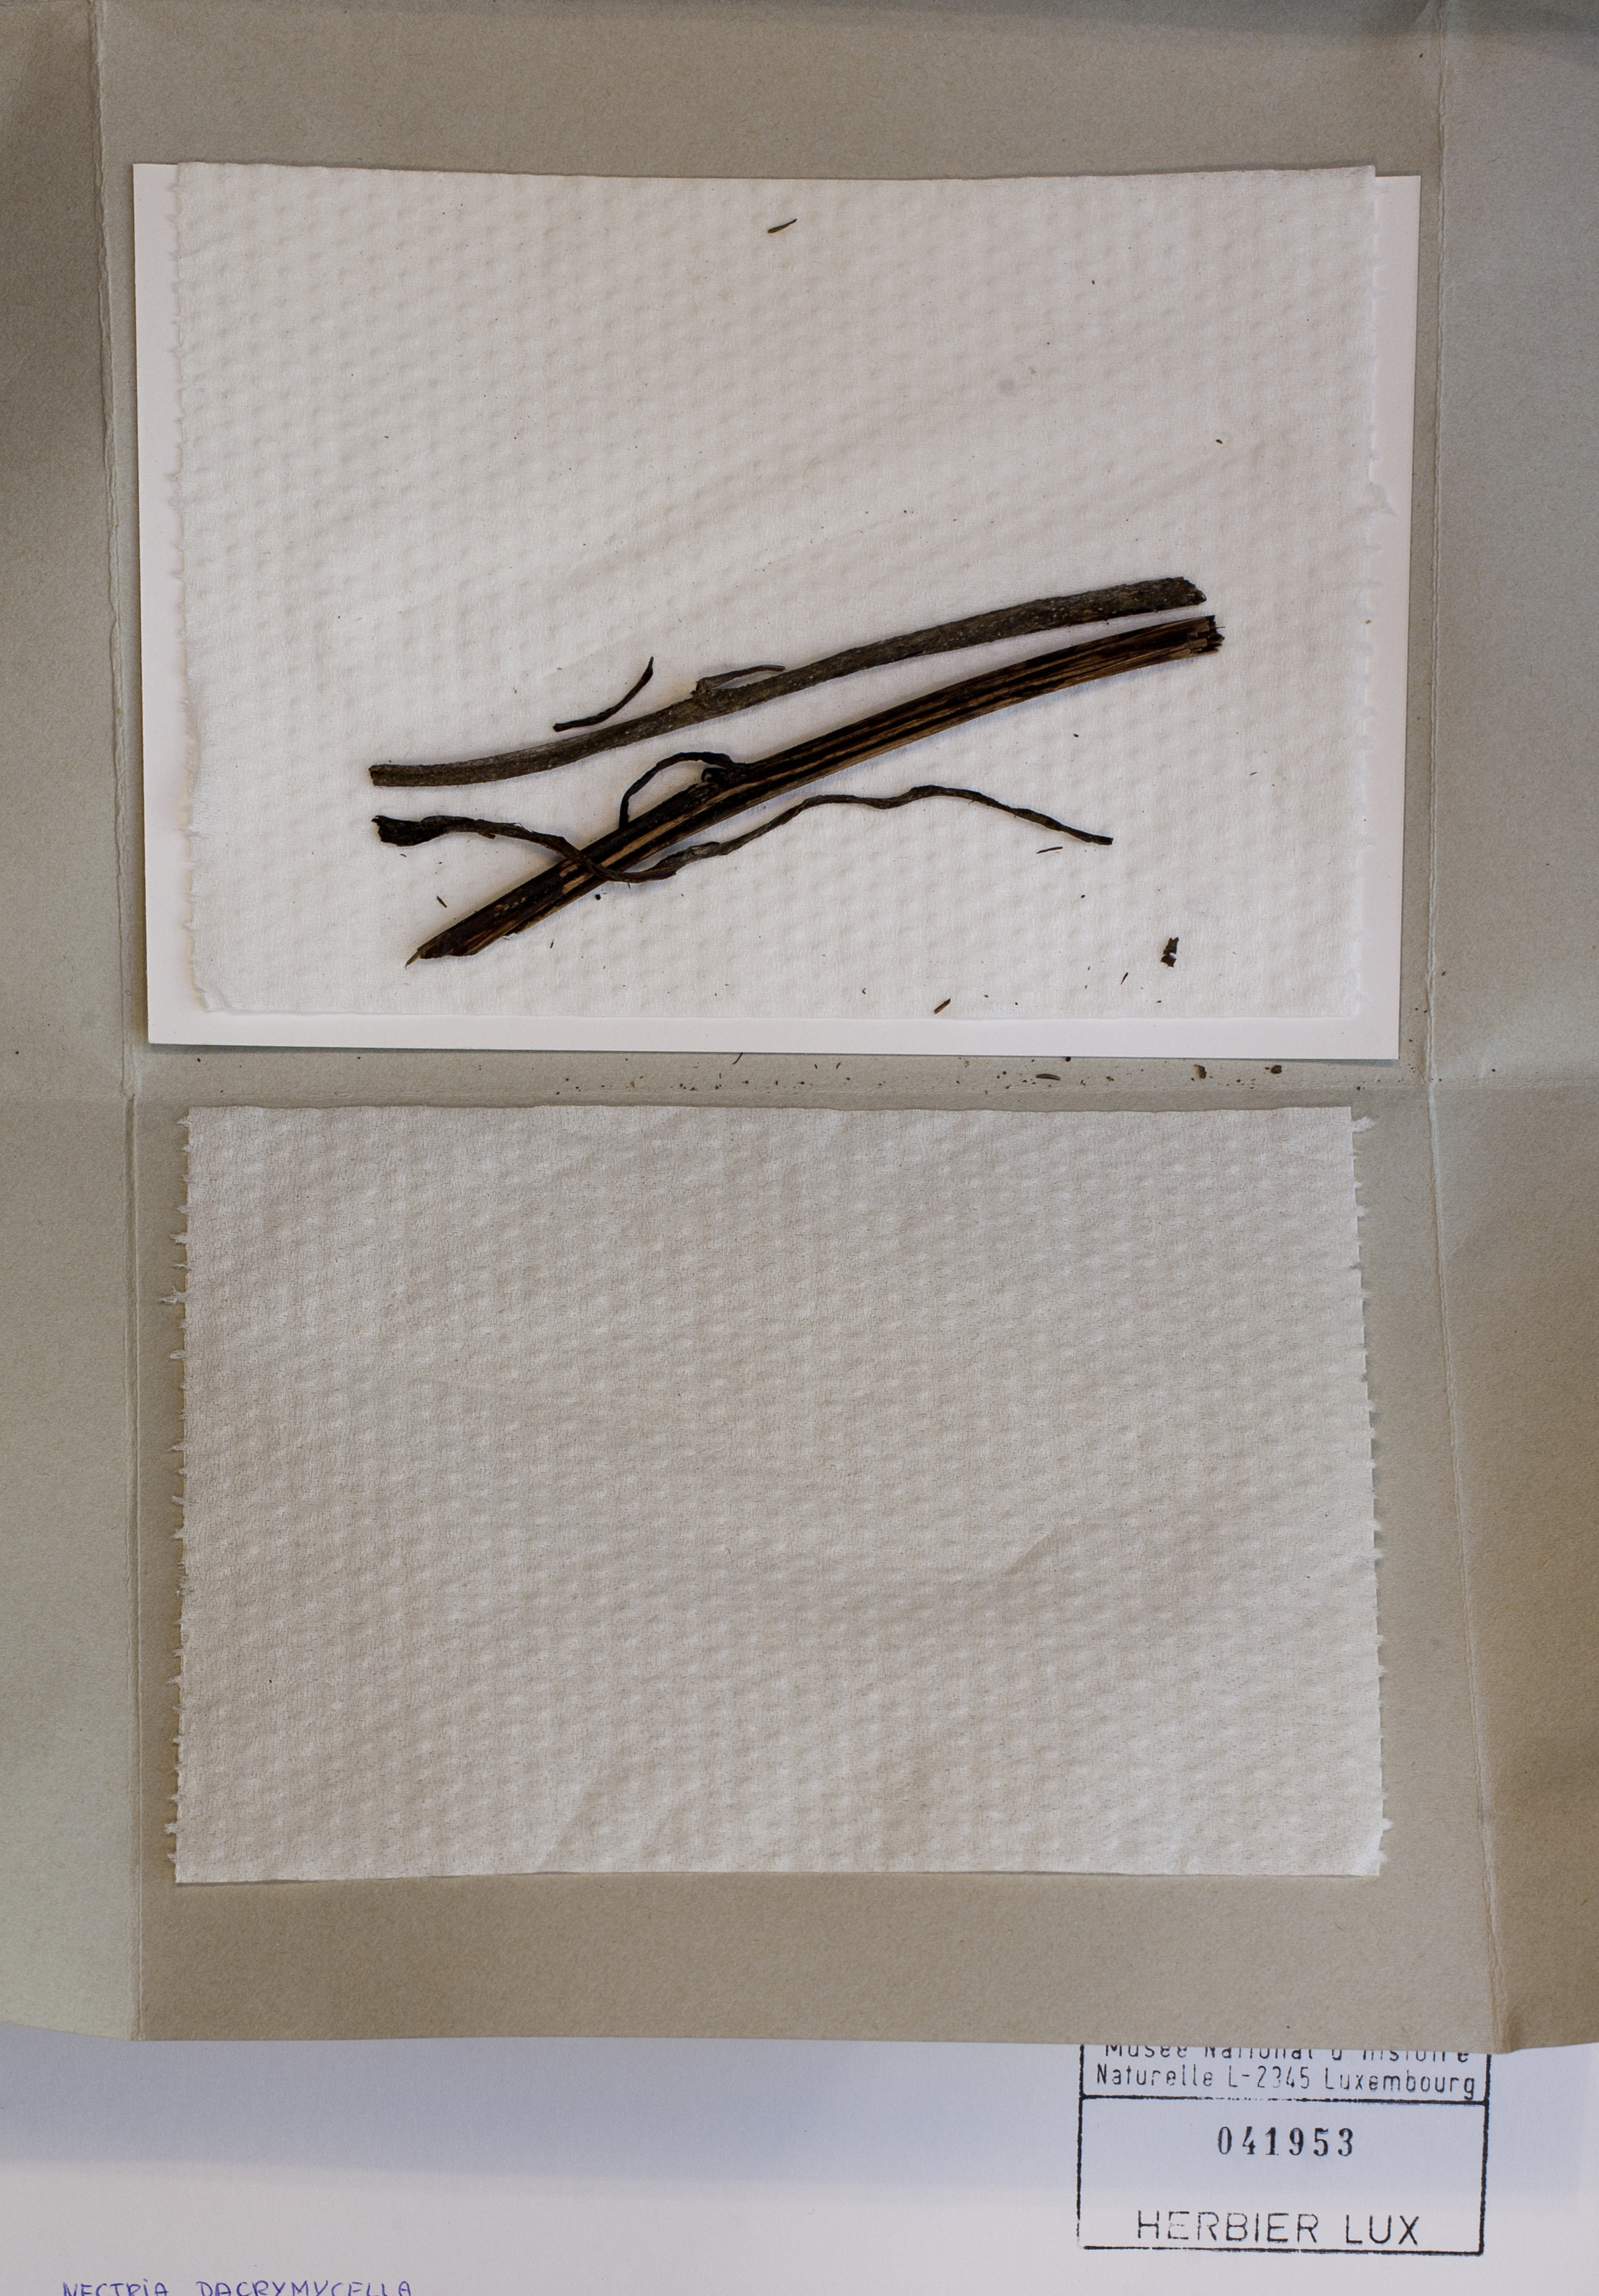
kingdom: Fungi
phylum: Ascomycota
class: Sordariomycetes
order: Hypocreales
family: Bionectriaceae
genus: Nectriella
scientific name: Nectriella dacrymycella
